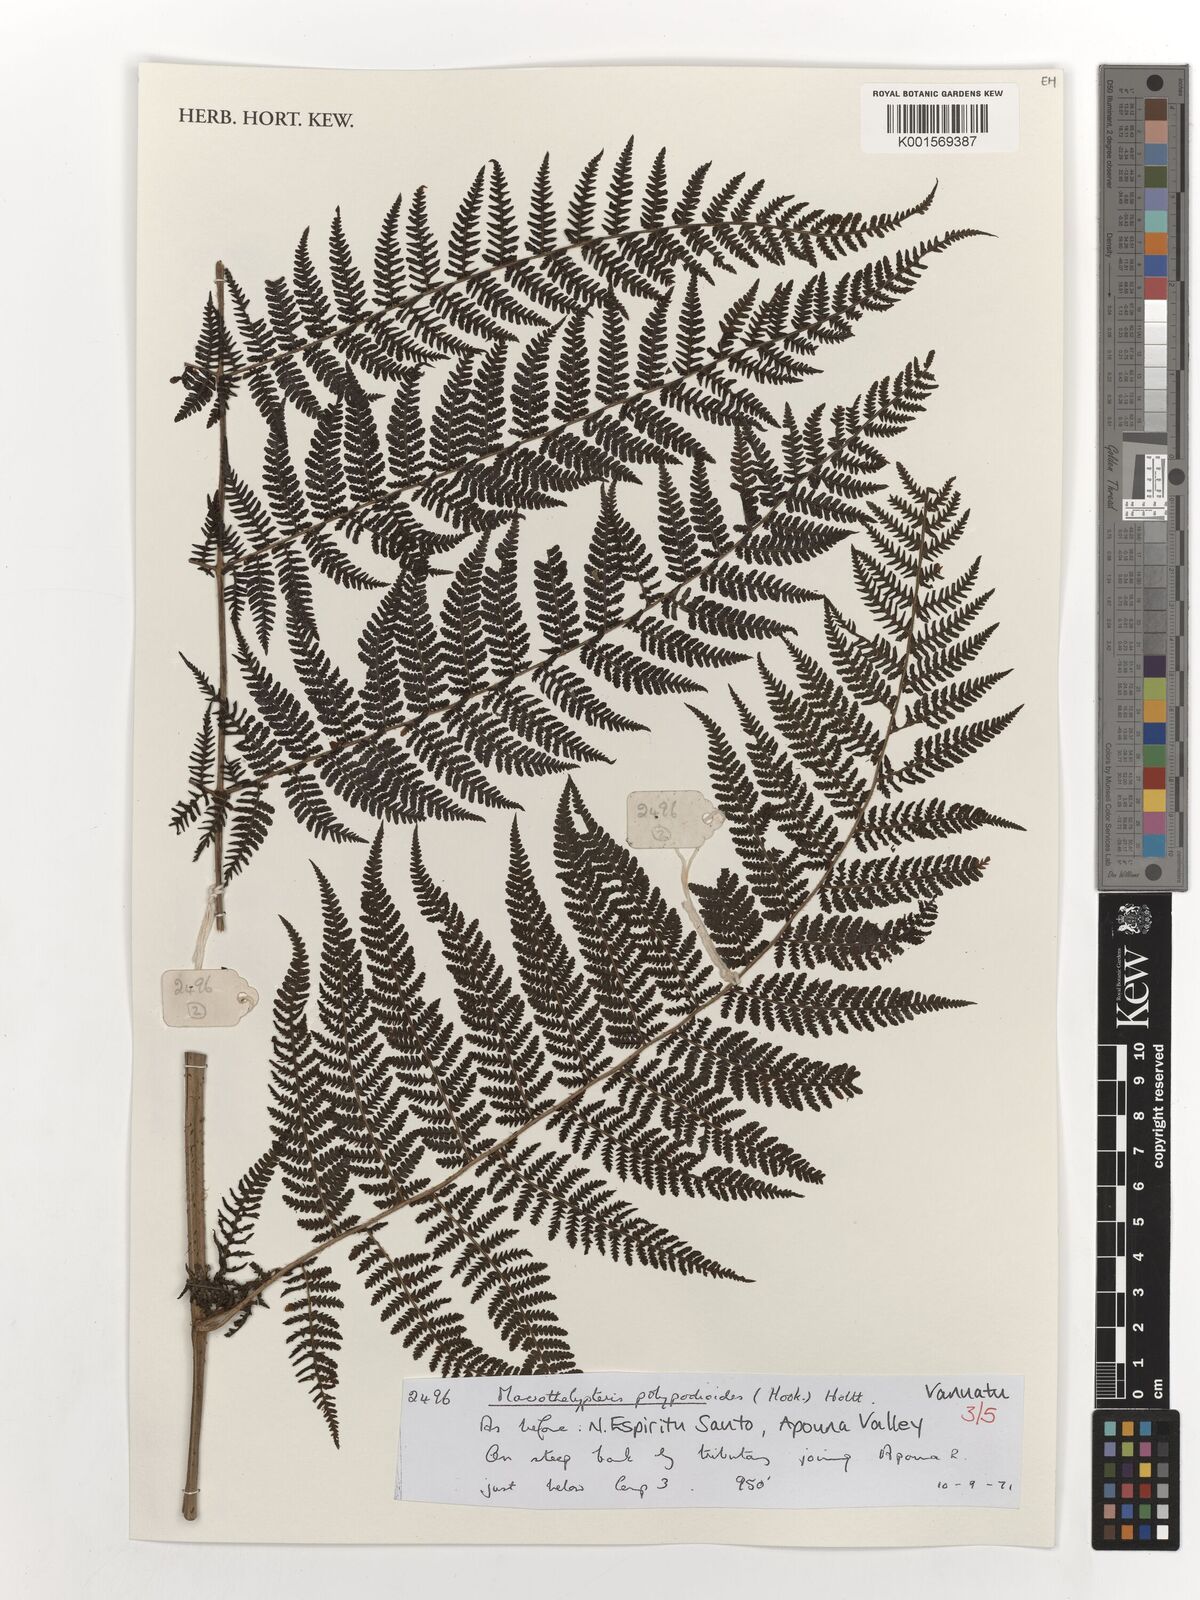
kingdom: Plantae
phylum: Tracheophyta
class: Polypodiopsida
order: Polypodiales
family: Thelypteridaceae
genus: Macrothelypteris
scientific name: Macrothelypteris polypodioides
